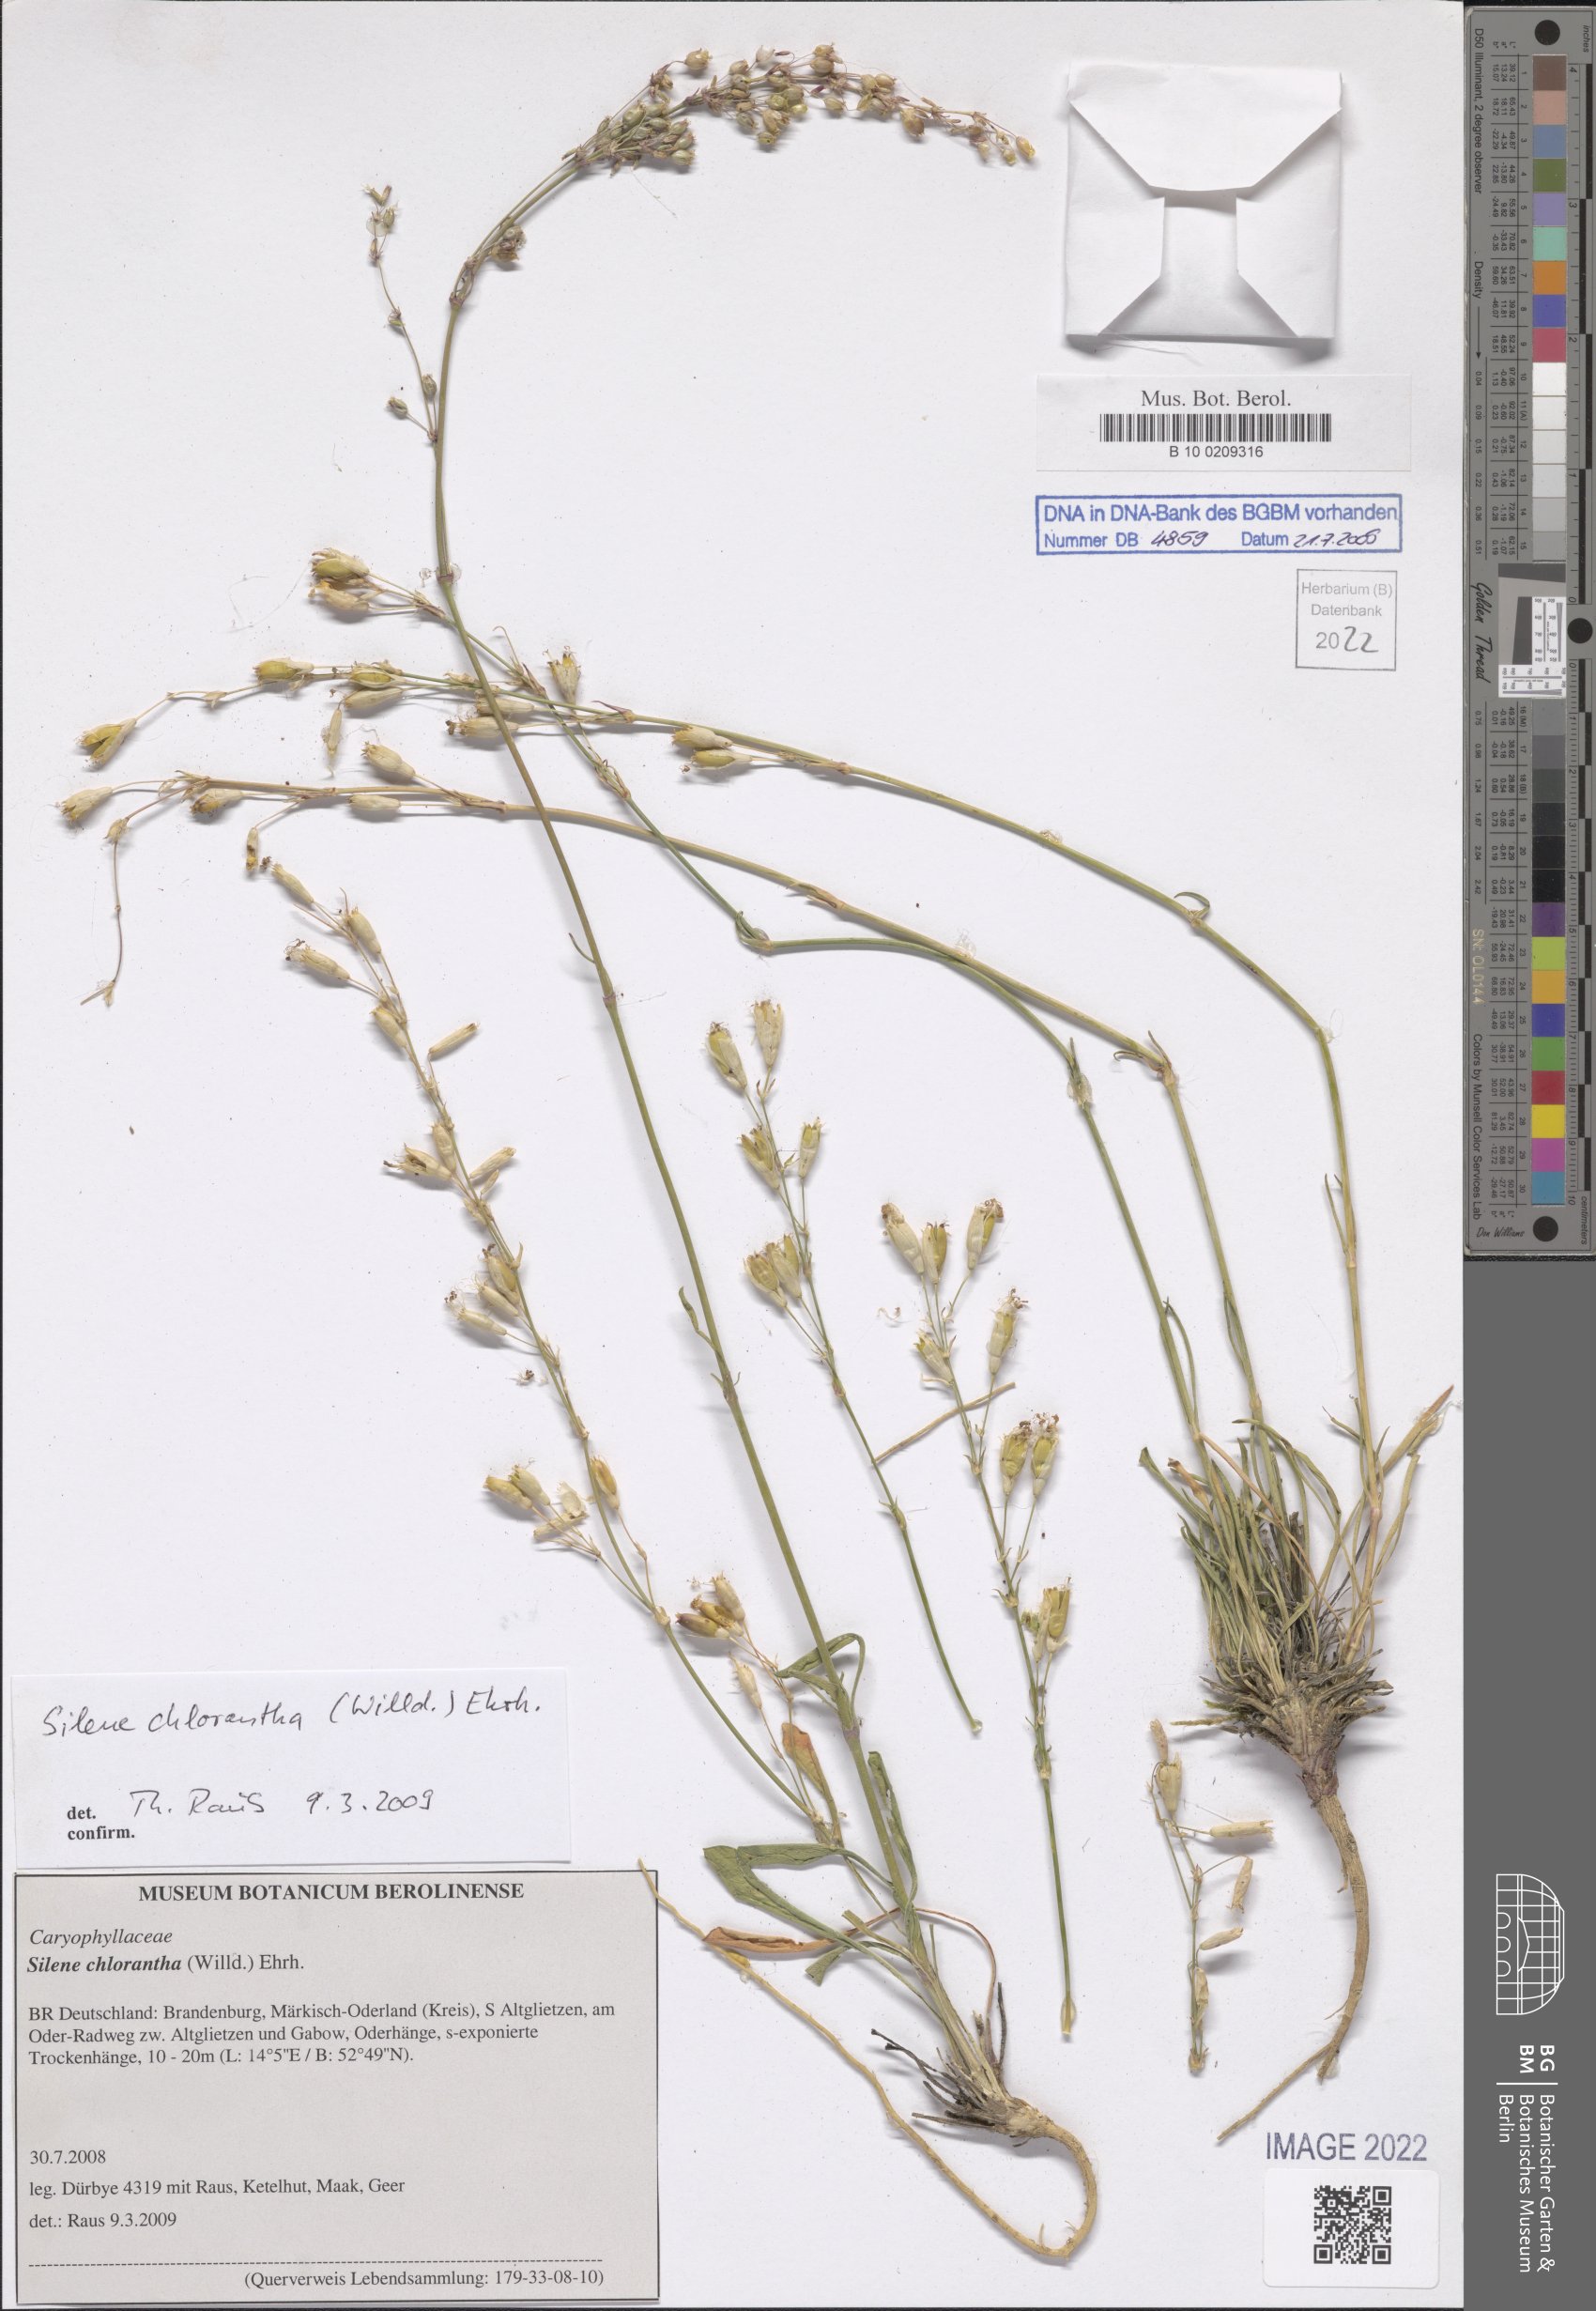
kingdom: Plantae
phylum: Tracheophyta
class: Magnoliopsida
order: Caryophyllales
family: Caryophyllaceae
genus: Silene
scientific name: Silene chlorantha
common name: Yellowgreen catchfly
